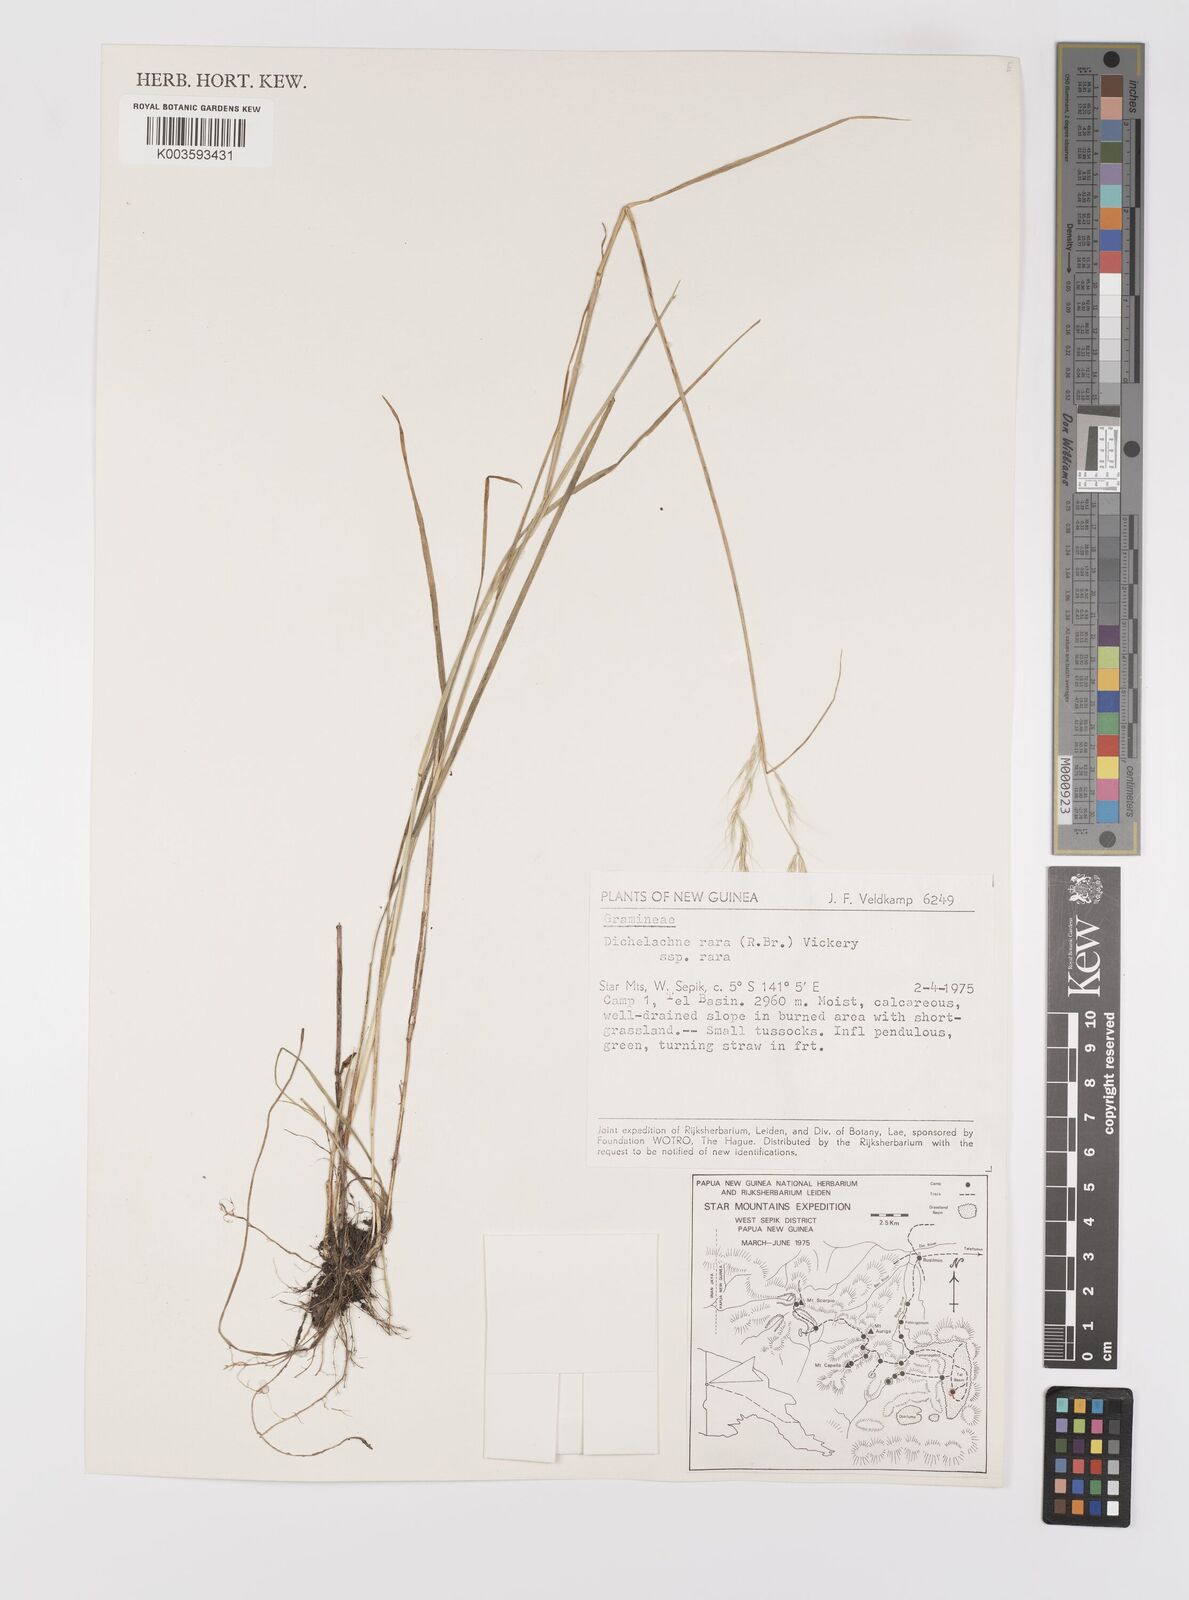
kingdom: Plantae
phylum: Tracheophyta
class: Liliopsida
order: Poales
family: Poaceae
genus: Dichelachne
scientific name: Dichelachne rara
